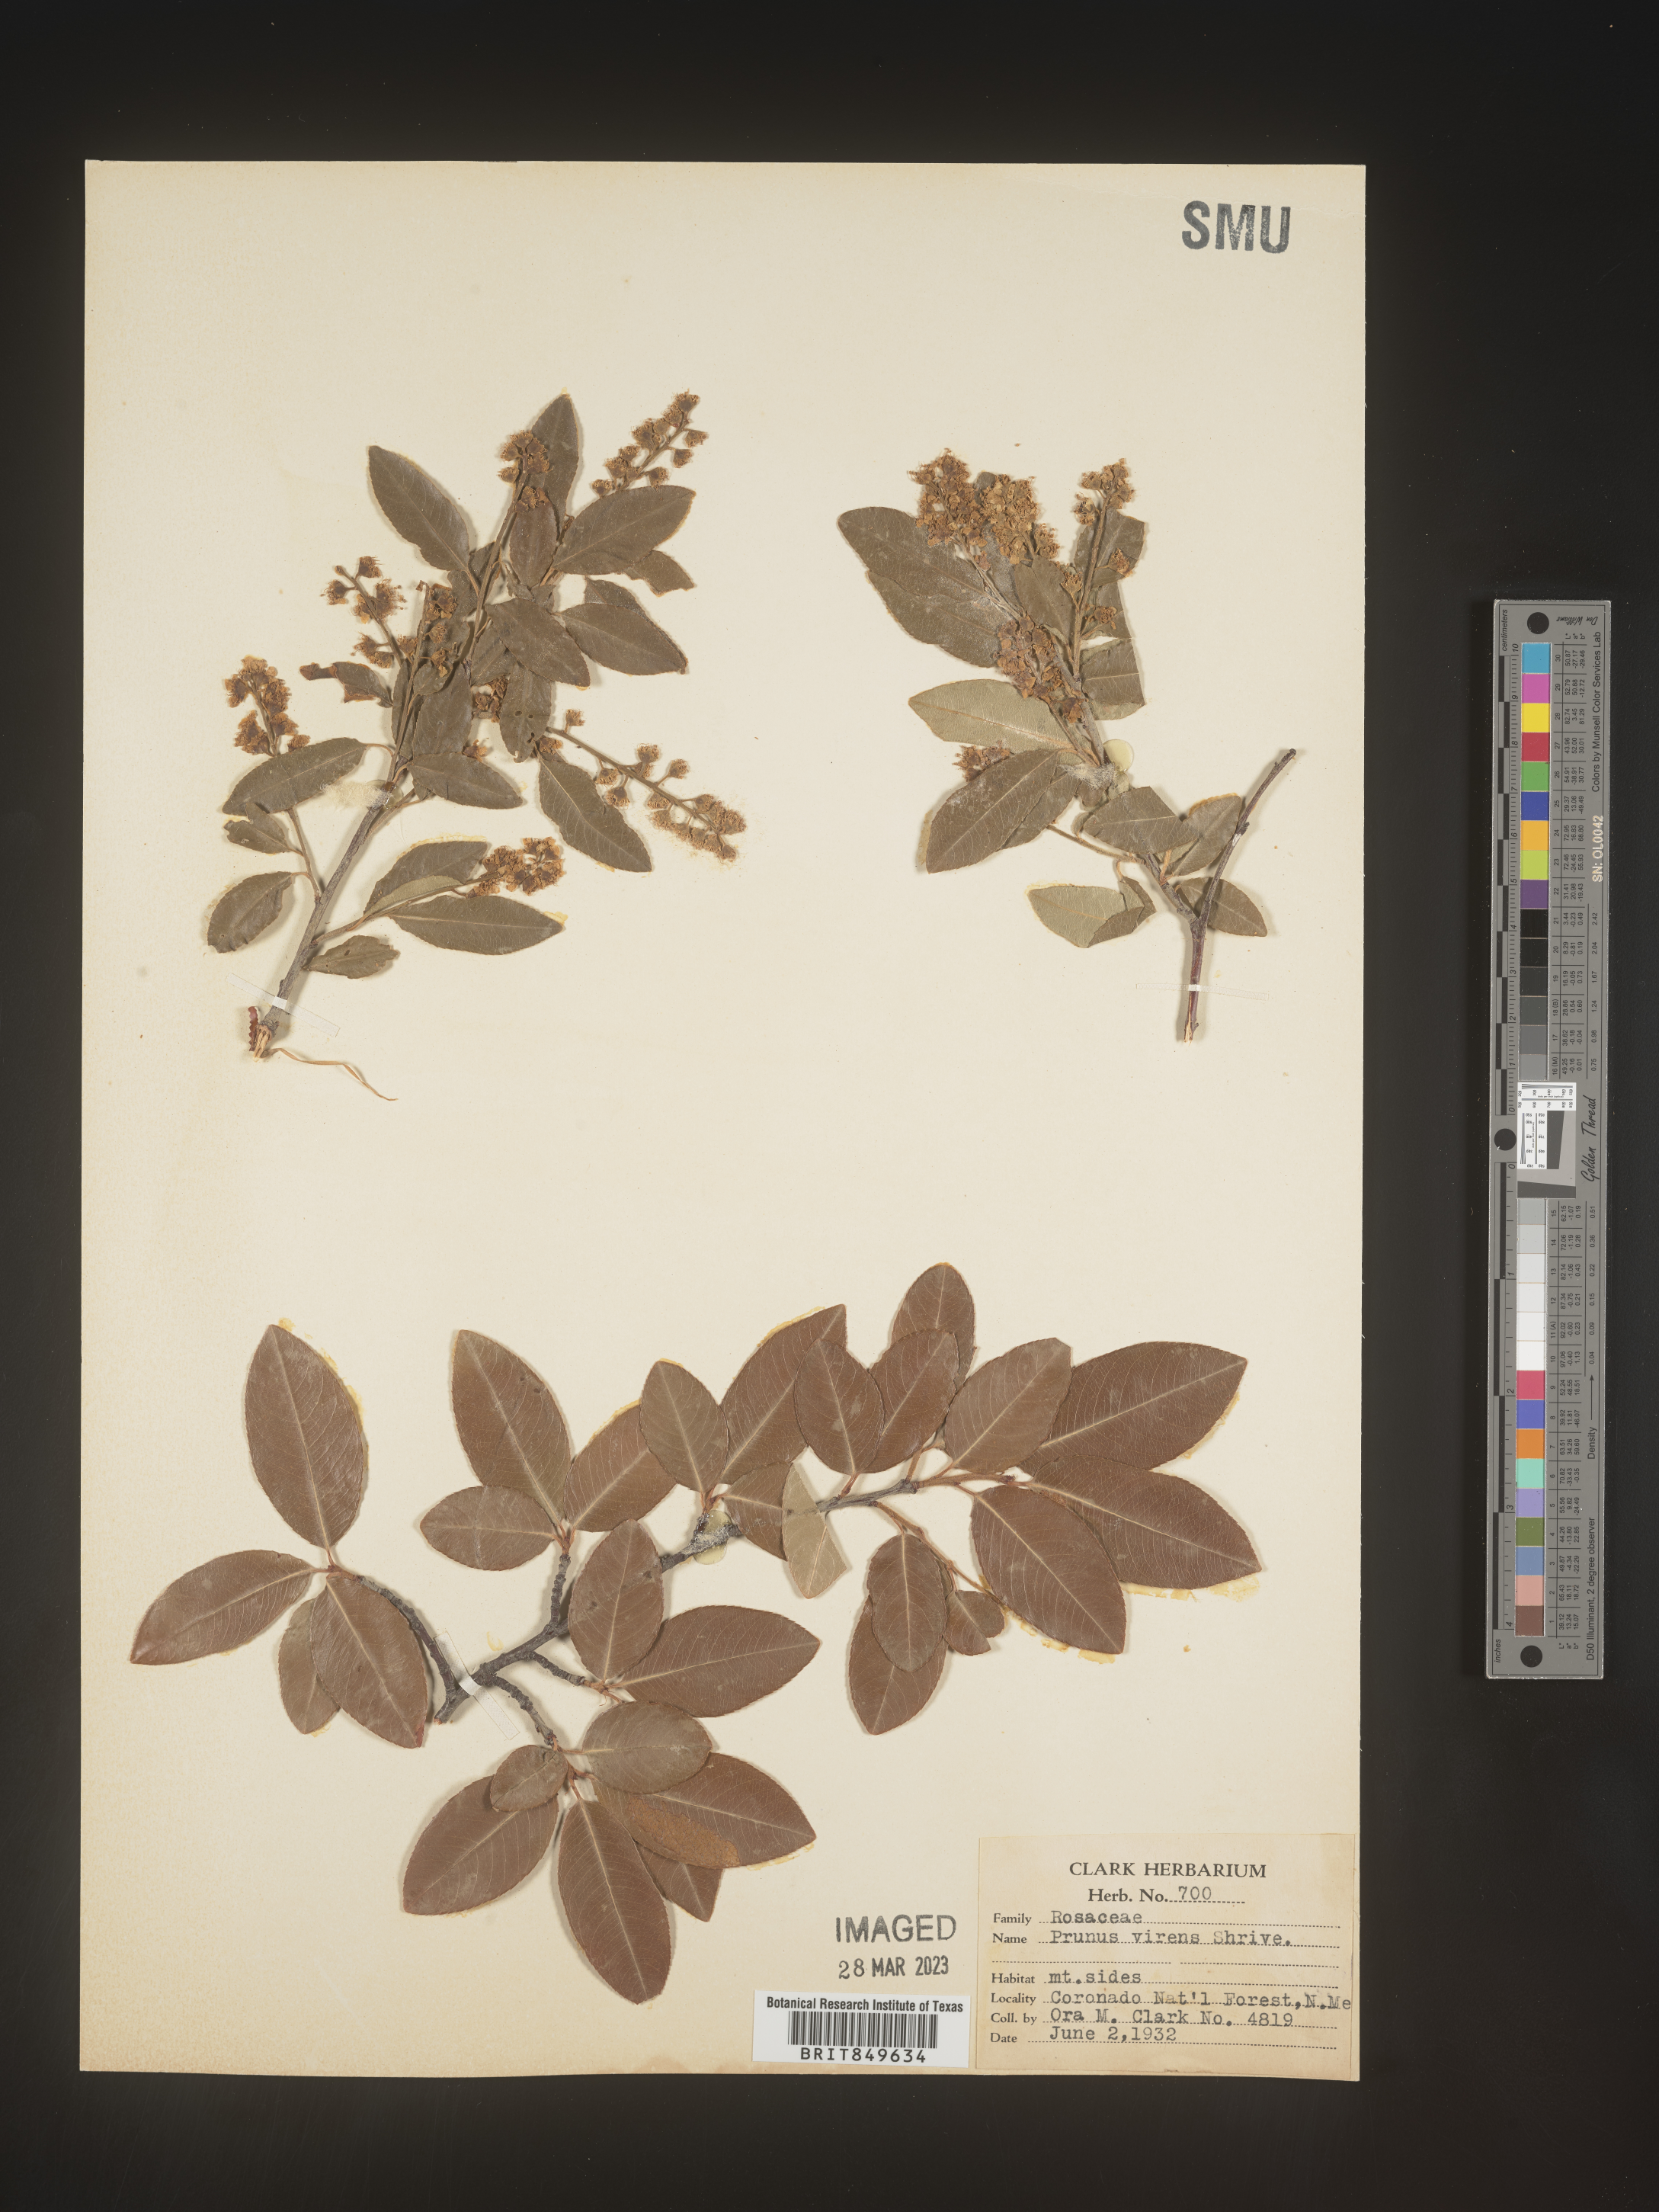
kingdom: Plantae
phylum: Tracheophyta
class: Magnoliopsida
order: Rosales
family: Rosaceae
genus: Prunus
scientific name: Prunus serotina
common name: Black cherry
